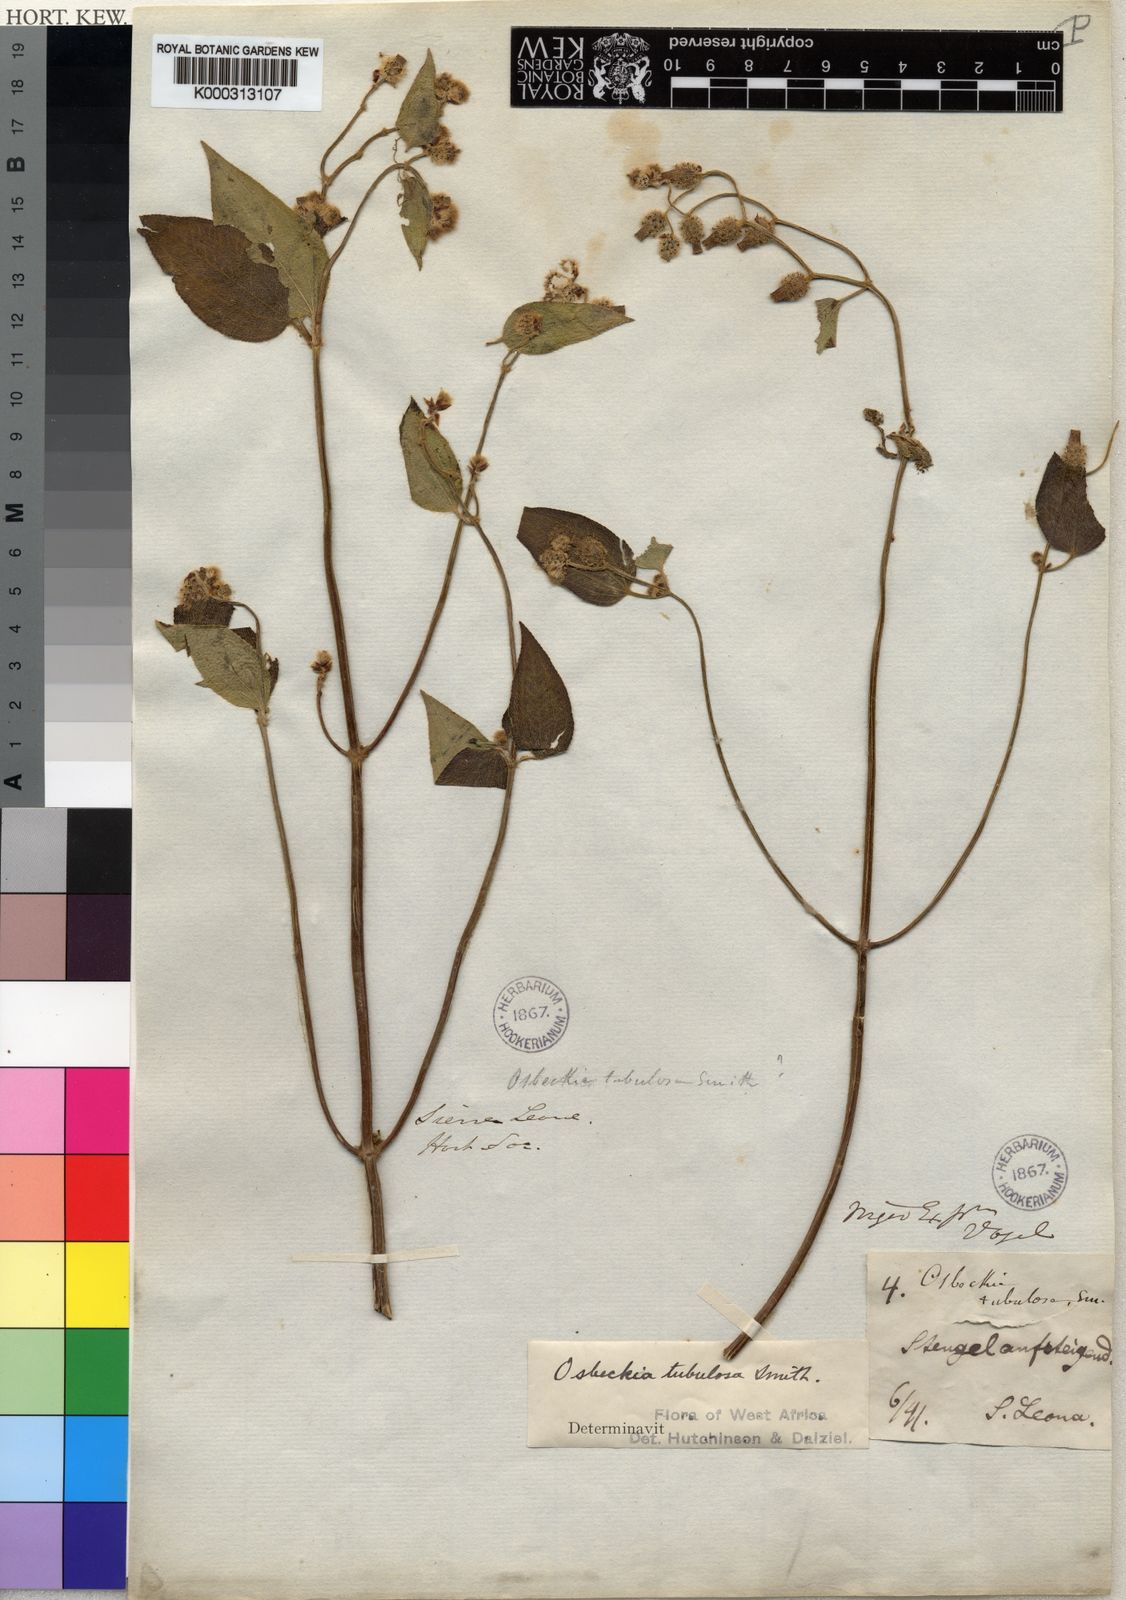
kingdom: Plantae
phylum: Tracheophyta
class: Magnoliopsida
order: Myrtales
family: Melastomataceae
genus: Derosiphia
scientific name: Derosiphia tubulosa
